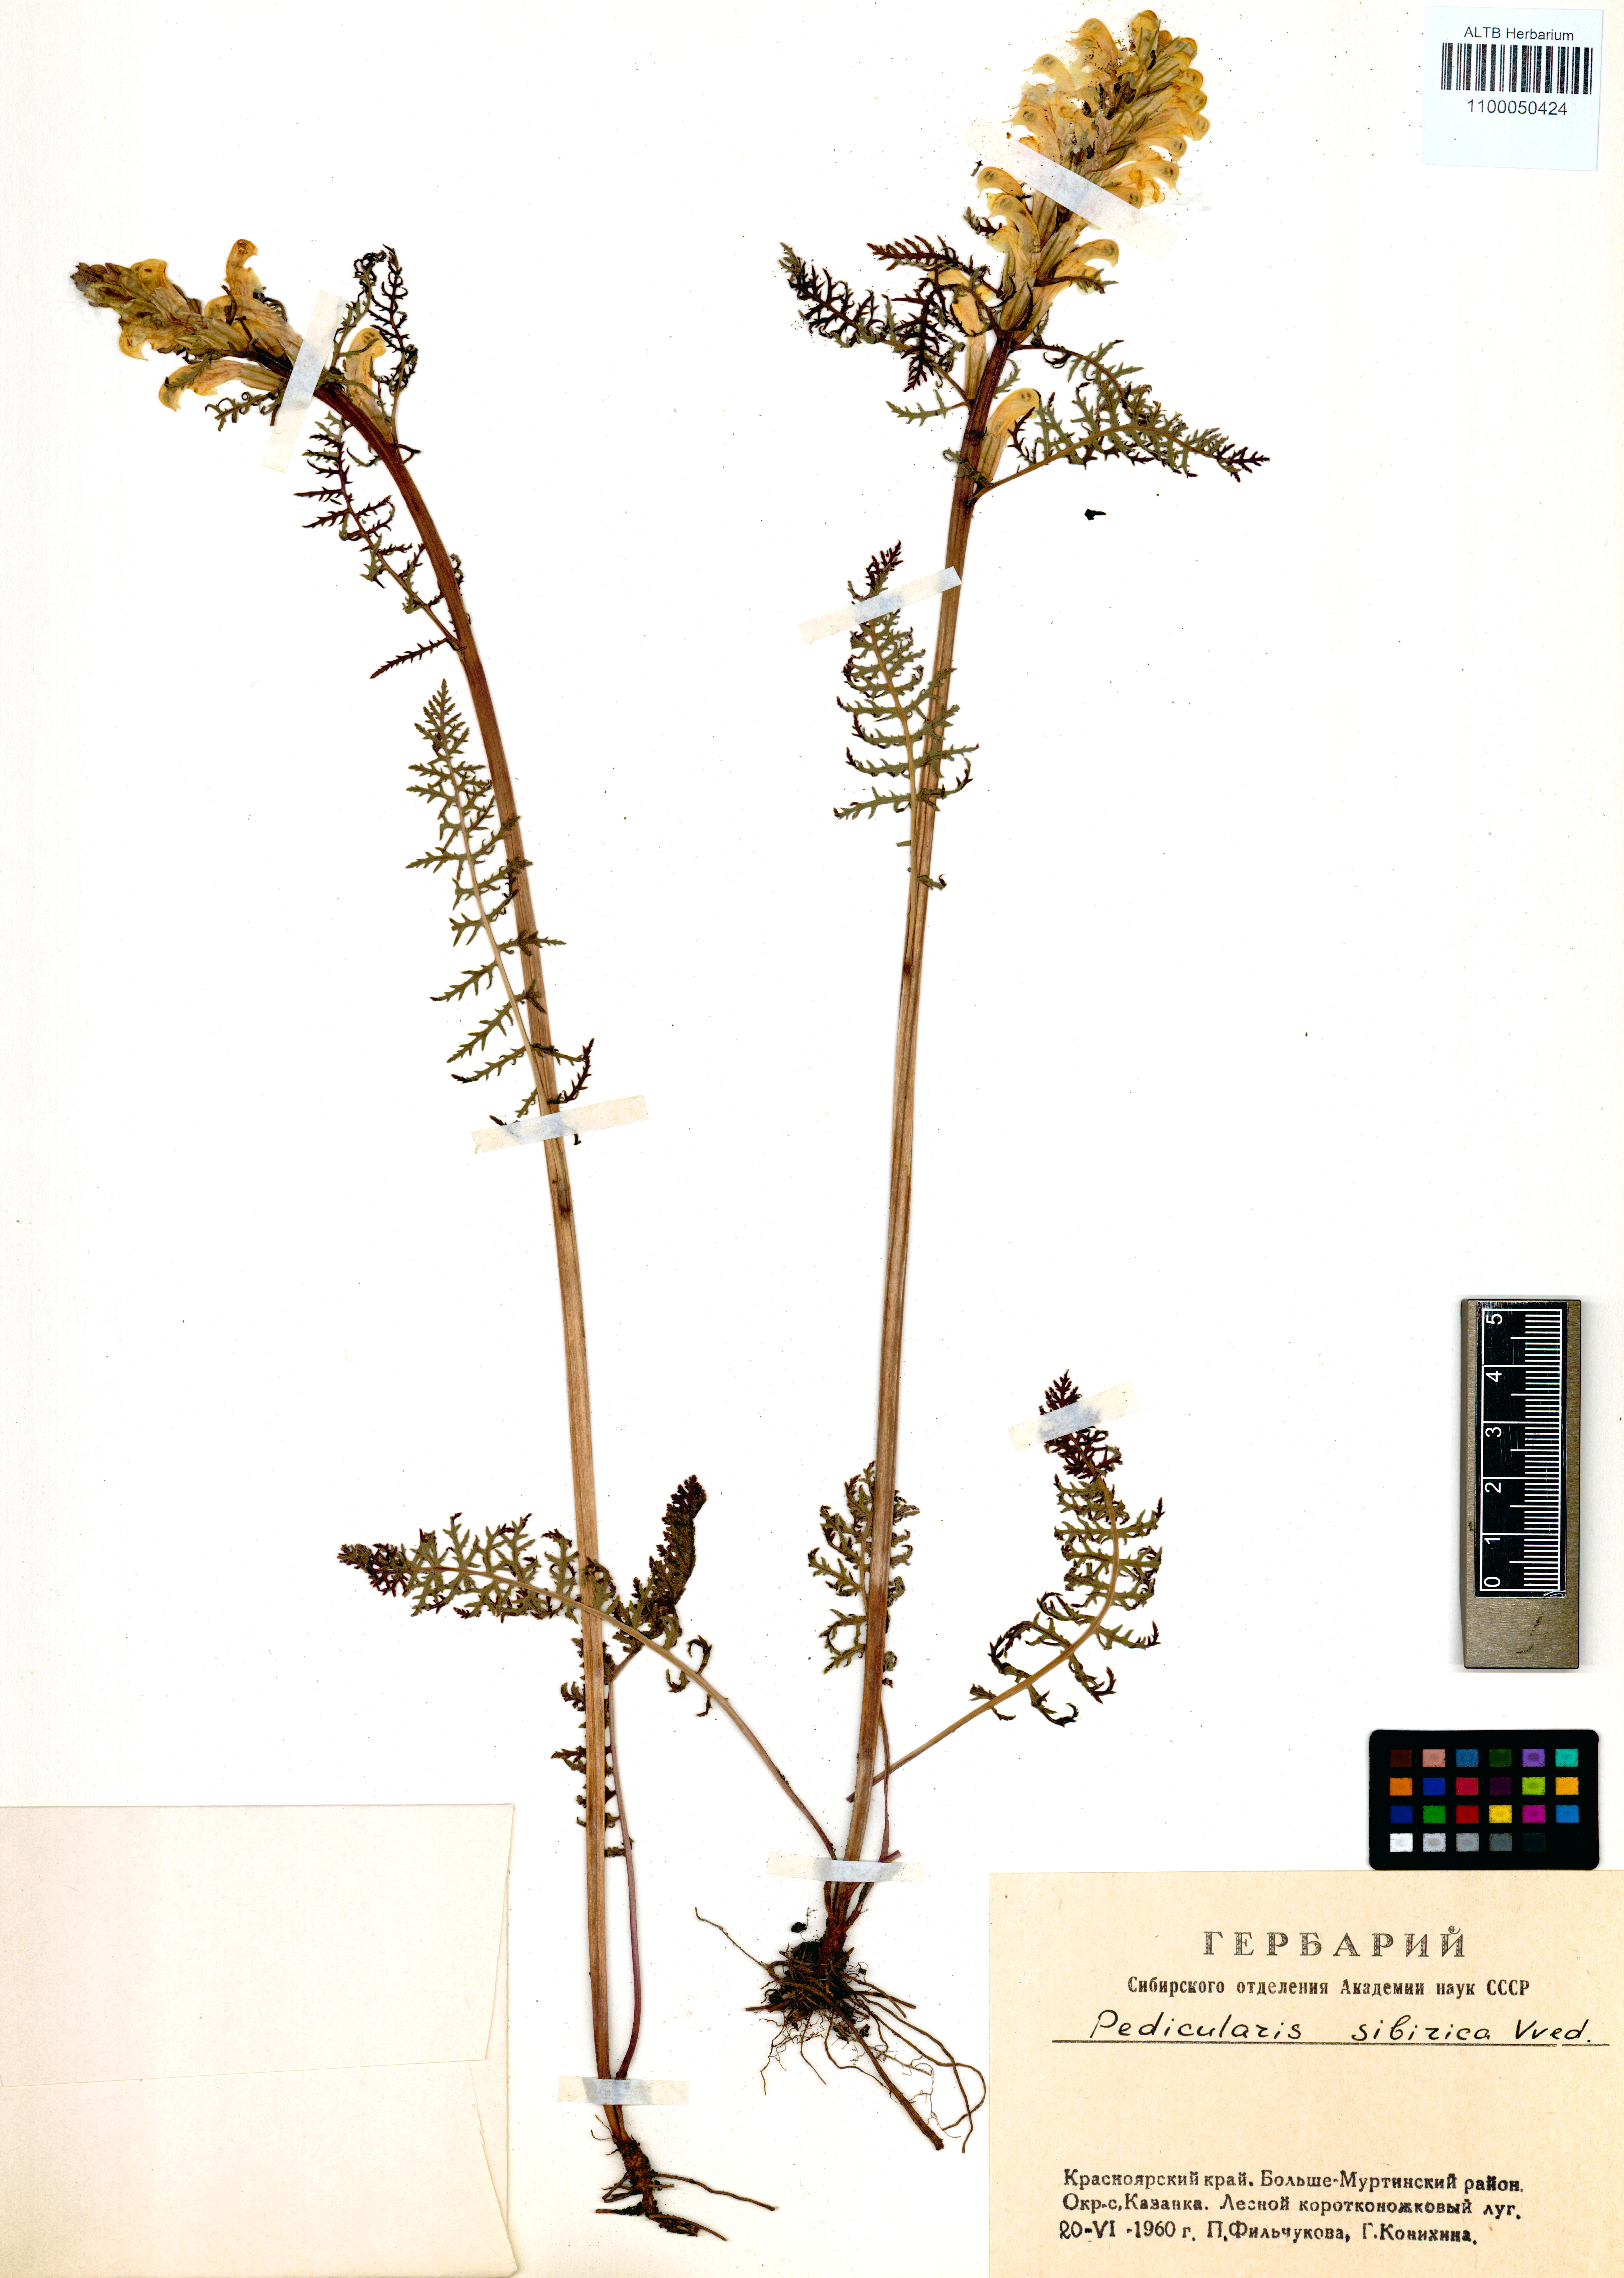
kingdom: Plantae
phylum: Tracheophyta
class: Magnoliopsida
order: Lamiales
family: Orobanchaceae
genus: Pedicularis
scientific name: Pedicularis sibirica
